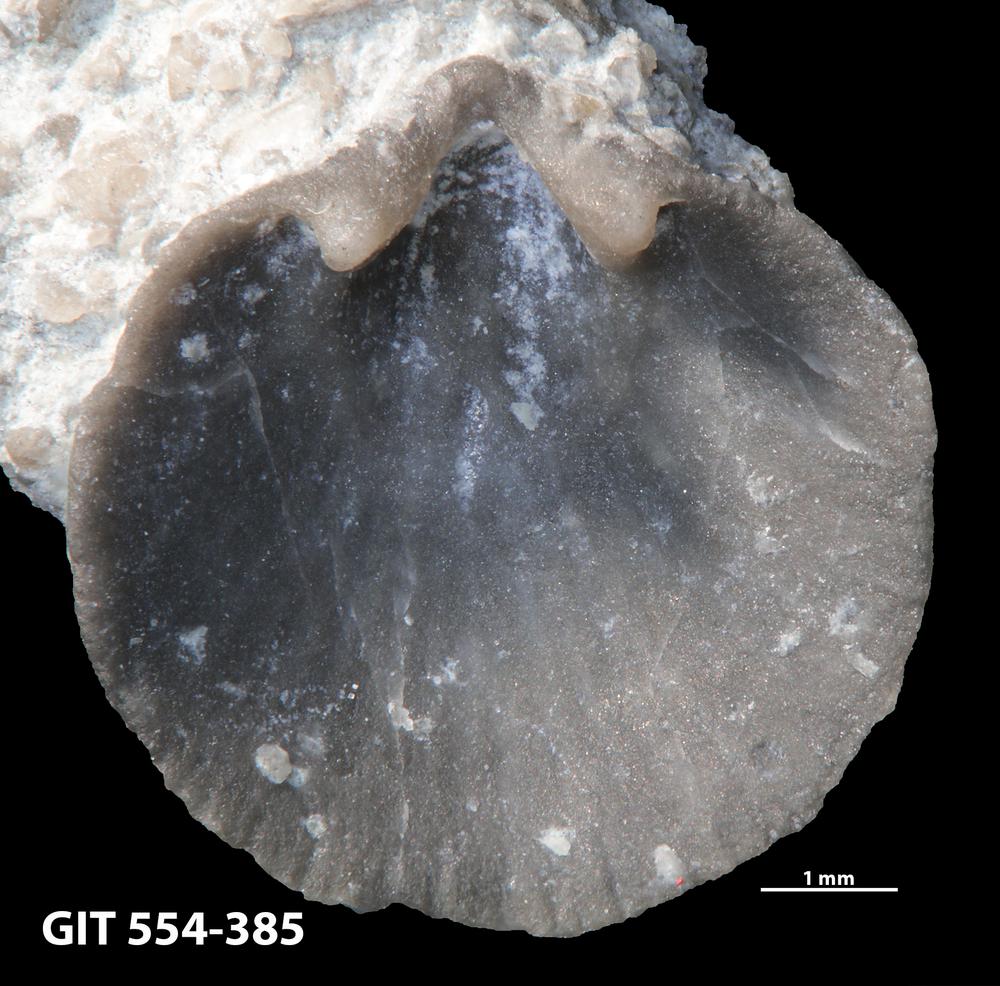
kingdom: Animalia
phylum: Brachiopoda
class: Rhynchonellata
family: Dalmanellidae
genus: Onniella
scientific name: Onniella trigona
